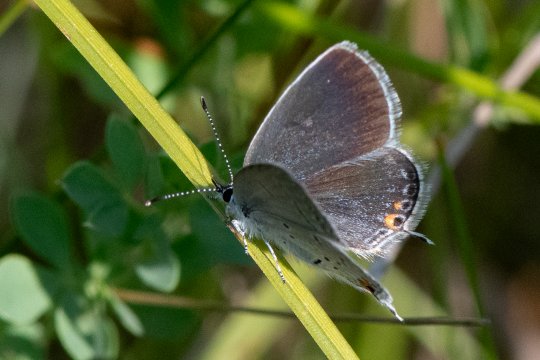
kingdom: Animalia
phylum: Arthropoda
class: Insecta
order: Lepidoptera
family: Lycaenidae
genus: Elkalyce
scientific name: Elkalyce comyntas
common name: Eastern Tailed-Blue
